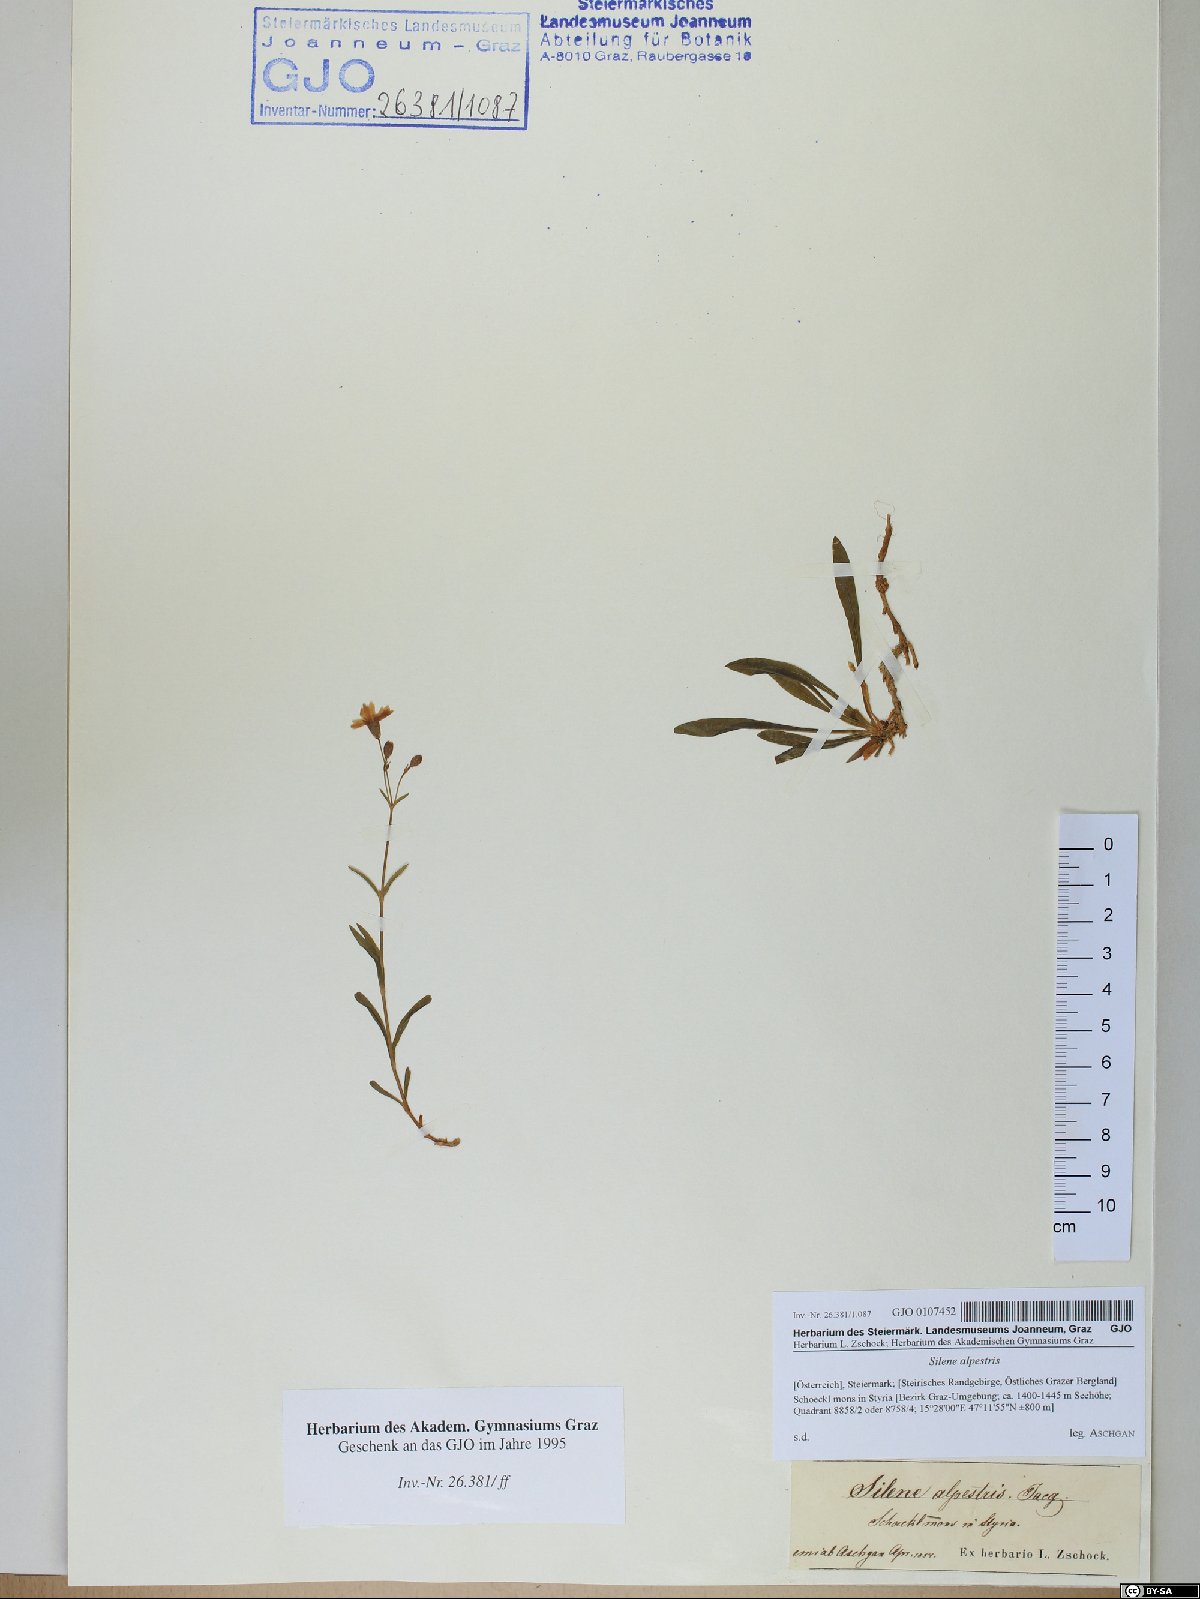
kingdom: Plantae
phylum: Tracheophyta
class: Magnoliopsida
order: Caryophyllales
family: Caryophyllaceae
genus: Heliosperma
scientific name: Heliosperma alpestre
